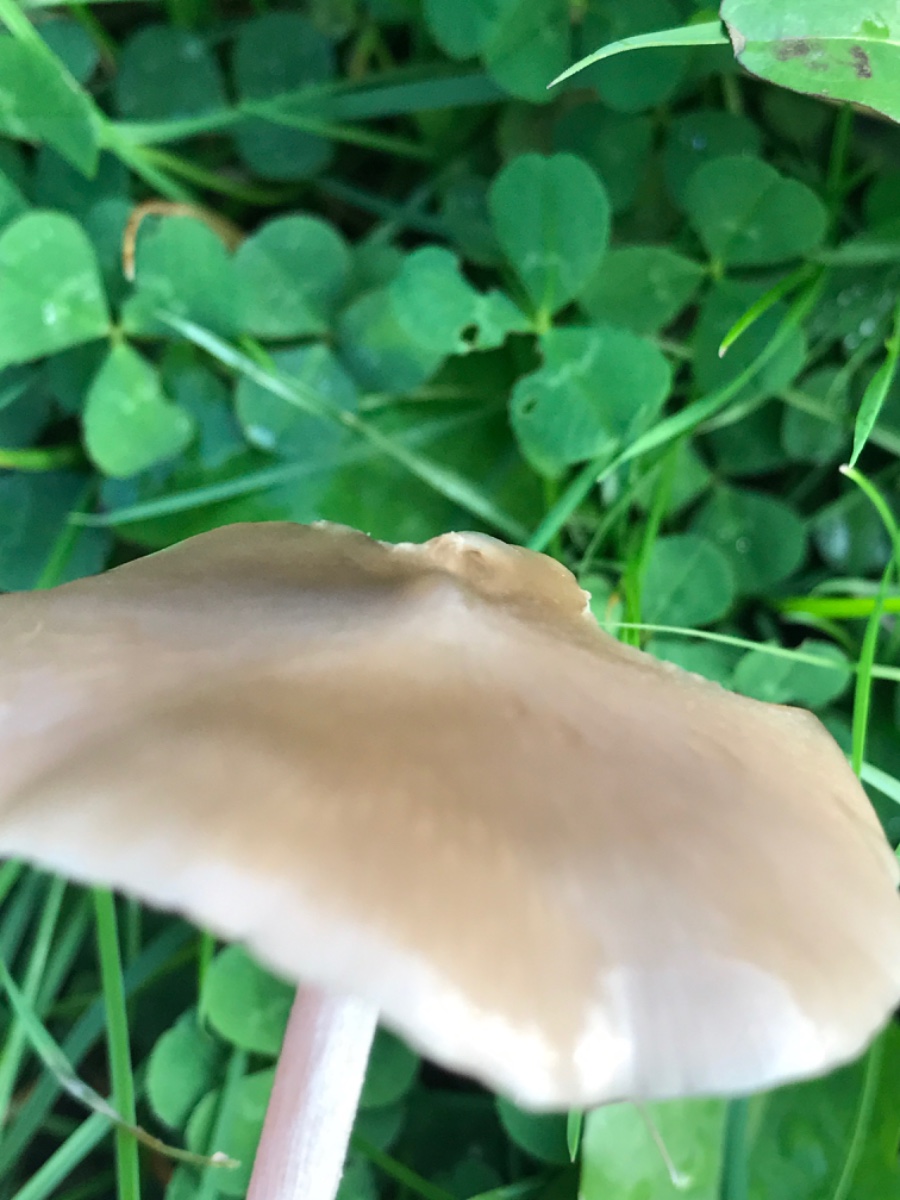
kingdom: Fungi
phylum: Basidiomycota
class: Agaricomycetes
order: Agaricales
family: Entolomataceae
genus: Entoloma
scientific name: Entoloma
